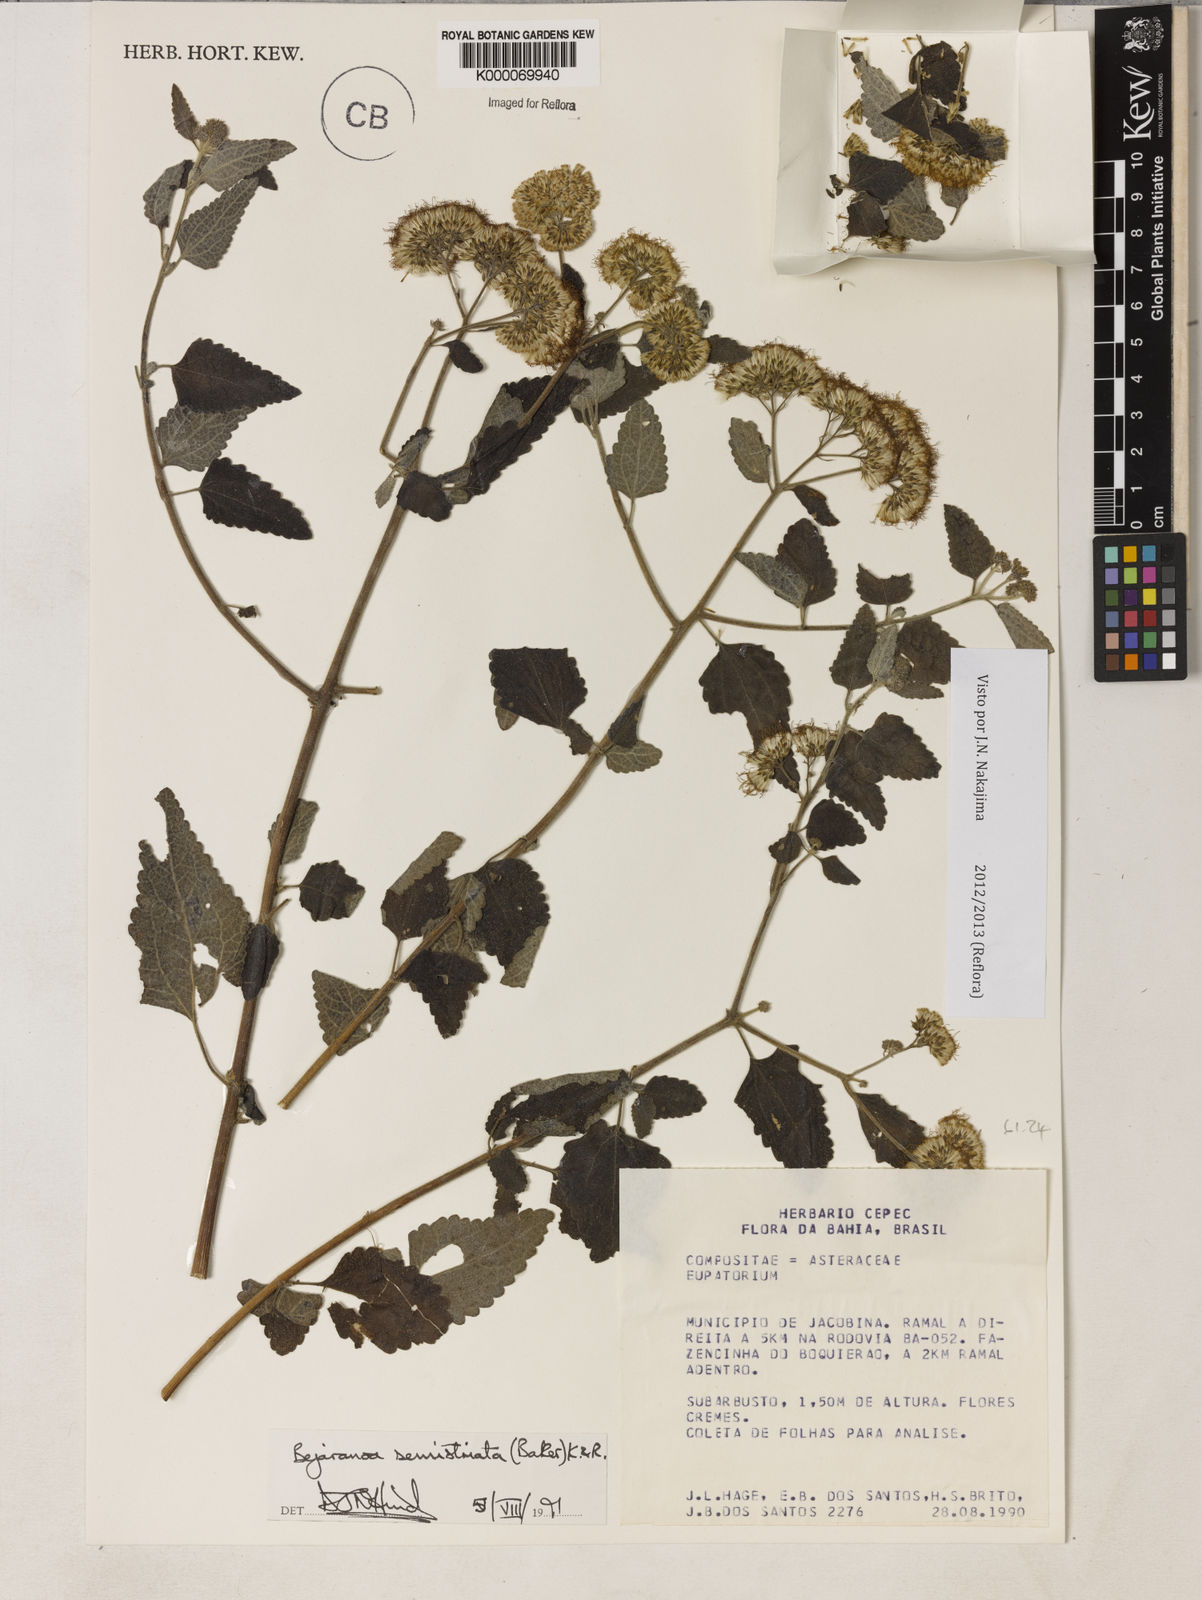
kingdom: Plantae
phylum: Tracheophyta
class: Magnoliopsida
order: Asterales
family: Asteraceae
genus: Bejaranoa
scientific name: Bejaranoa semistriata
